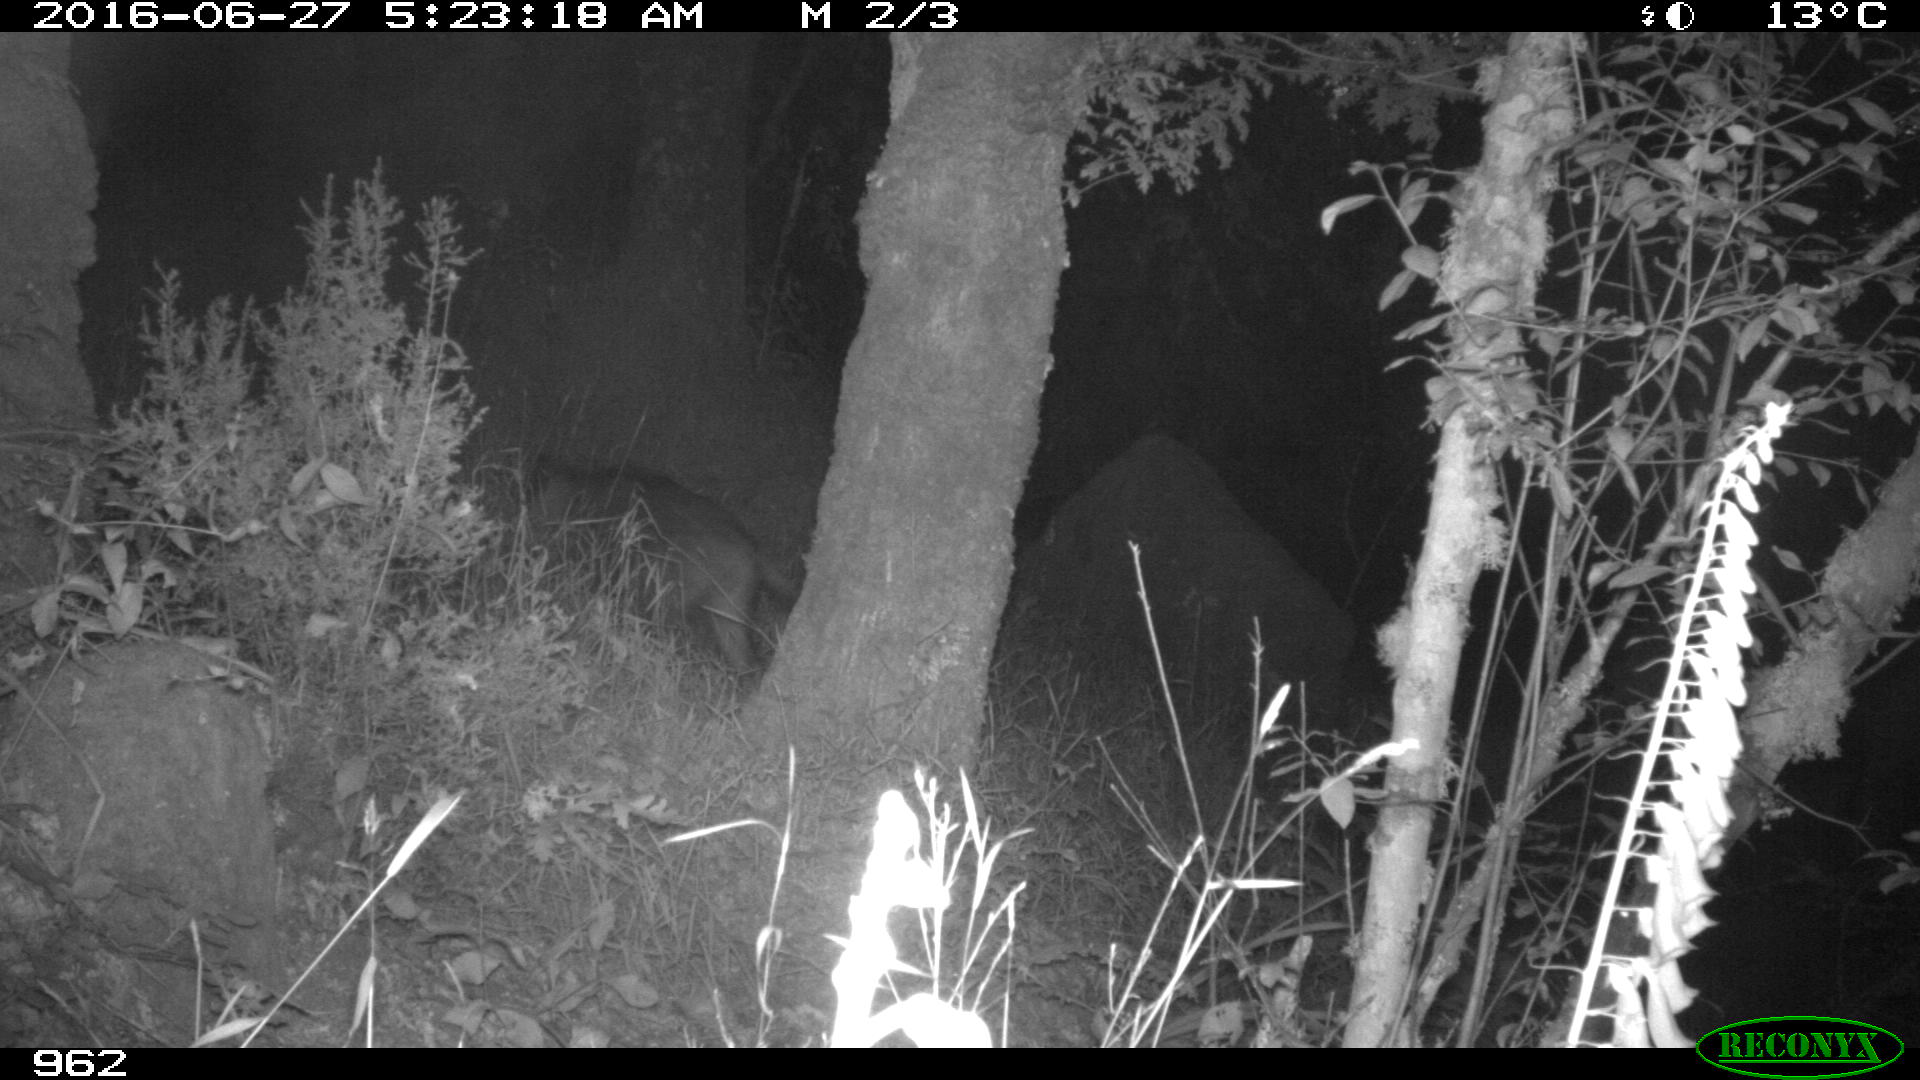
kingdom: Animalia
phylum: Chordata
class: Mammalia
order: Artiodactyla
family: Suidae
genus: Sus
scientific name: Sus scrofa
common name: Wild boar
